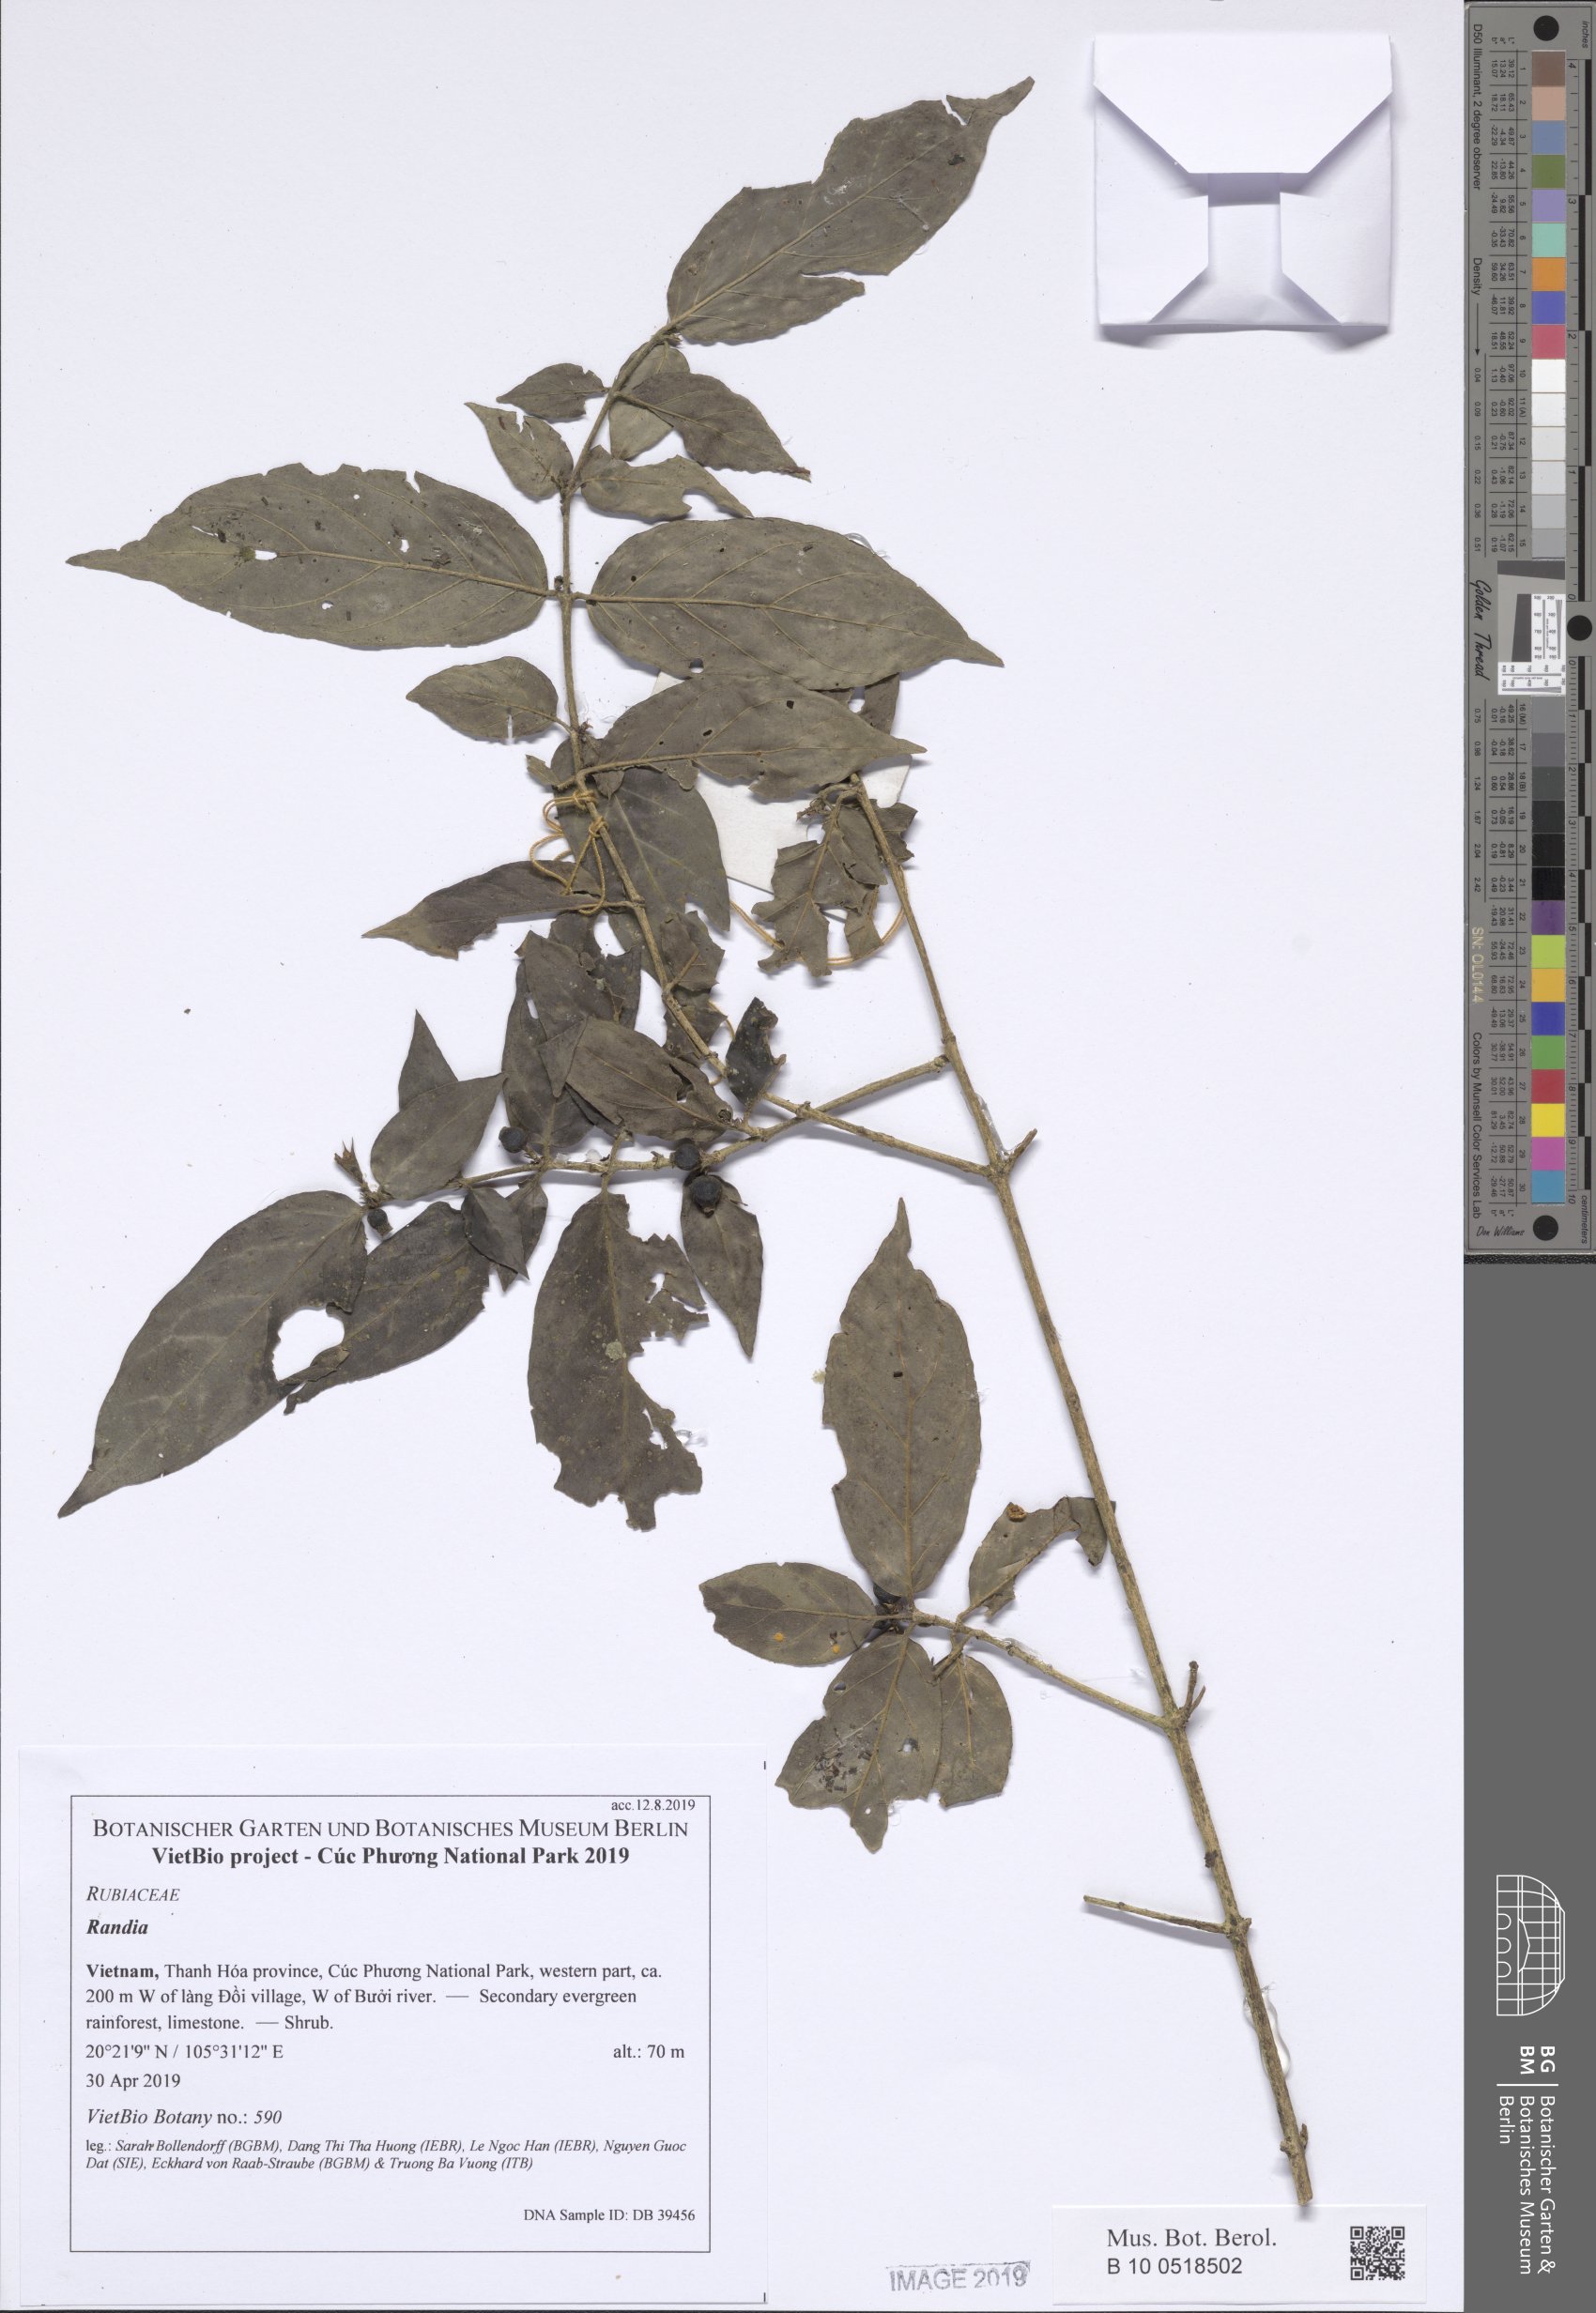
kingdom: Plantae
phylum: Tracheophyta
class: Magnoliopsida
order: Gentianales
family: Rubiaceae
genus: Benkara
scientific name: Benkara depauperata
